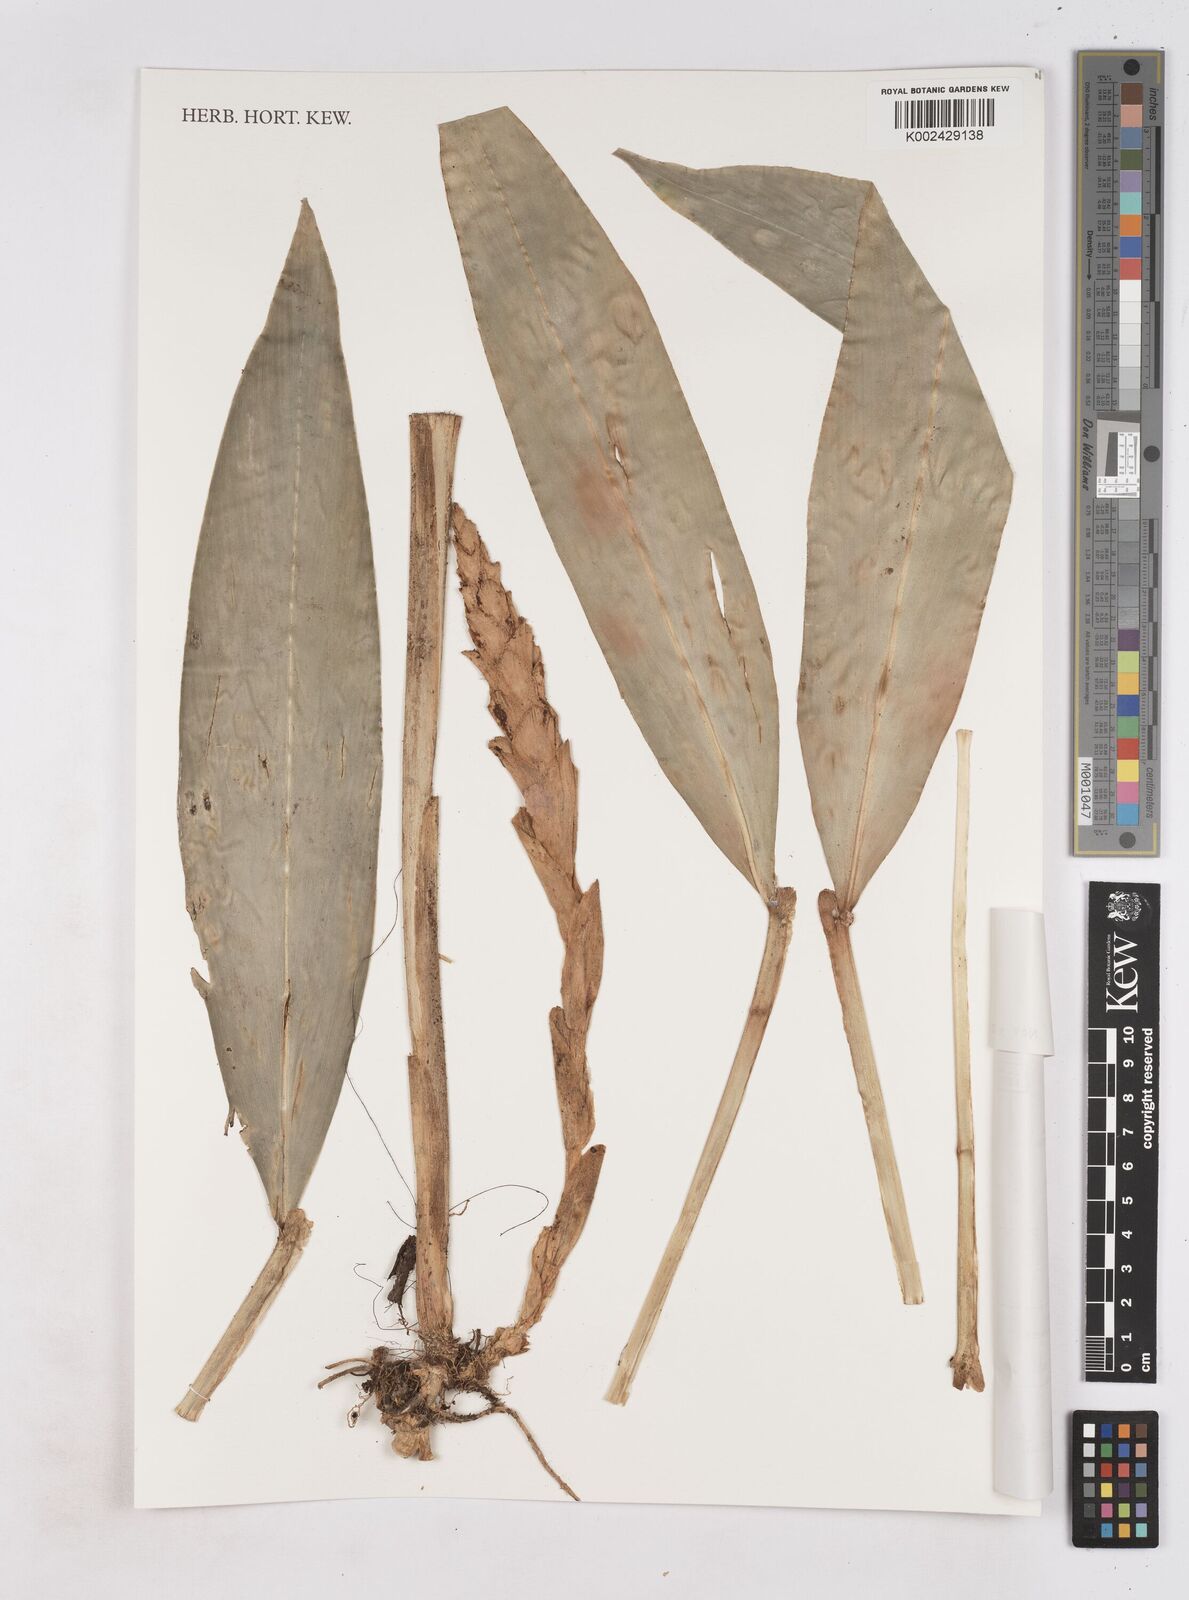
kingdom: Plantae
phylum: Tracheophyta
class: Liliopsida
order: Zingiberales
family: Zingiberaceae
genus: Zingiber
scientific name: Zingiber
